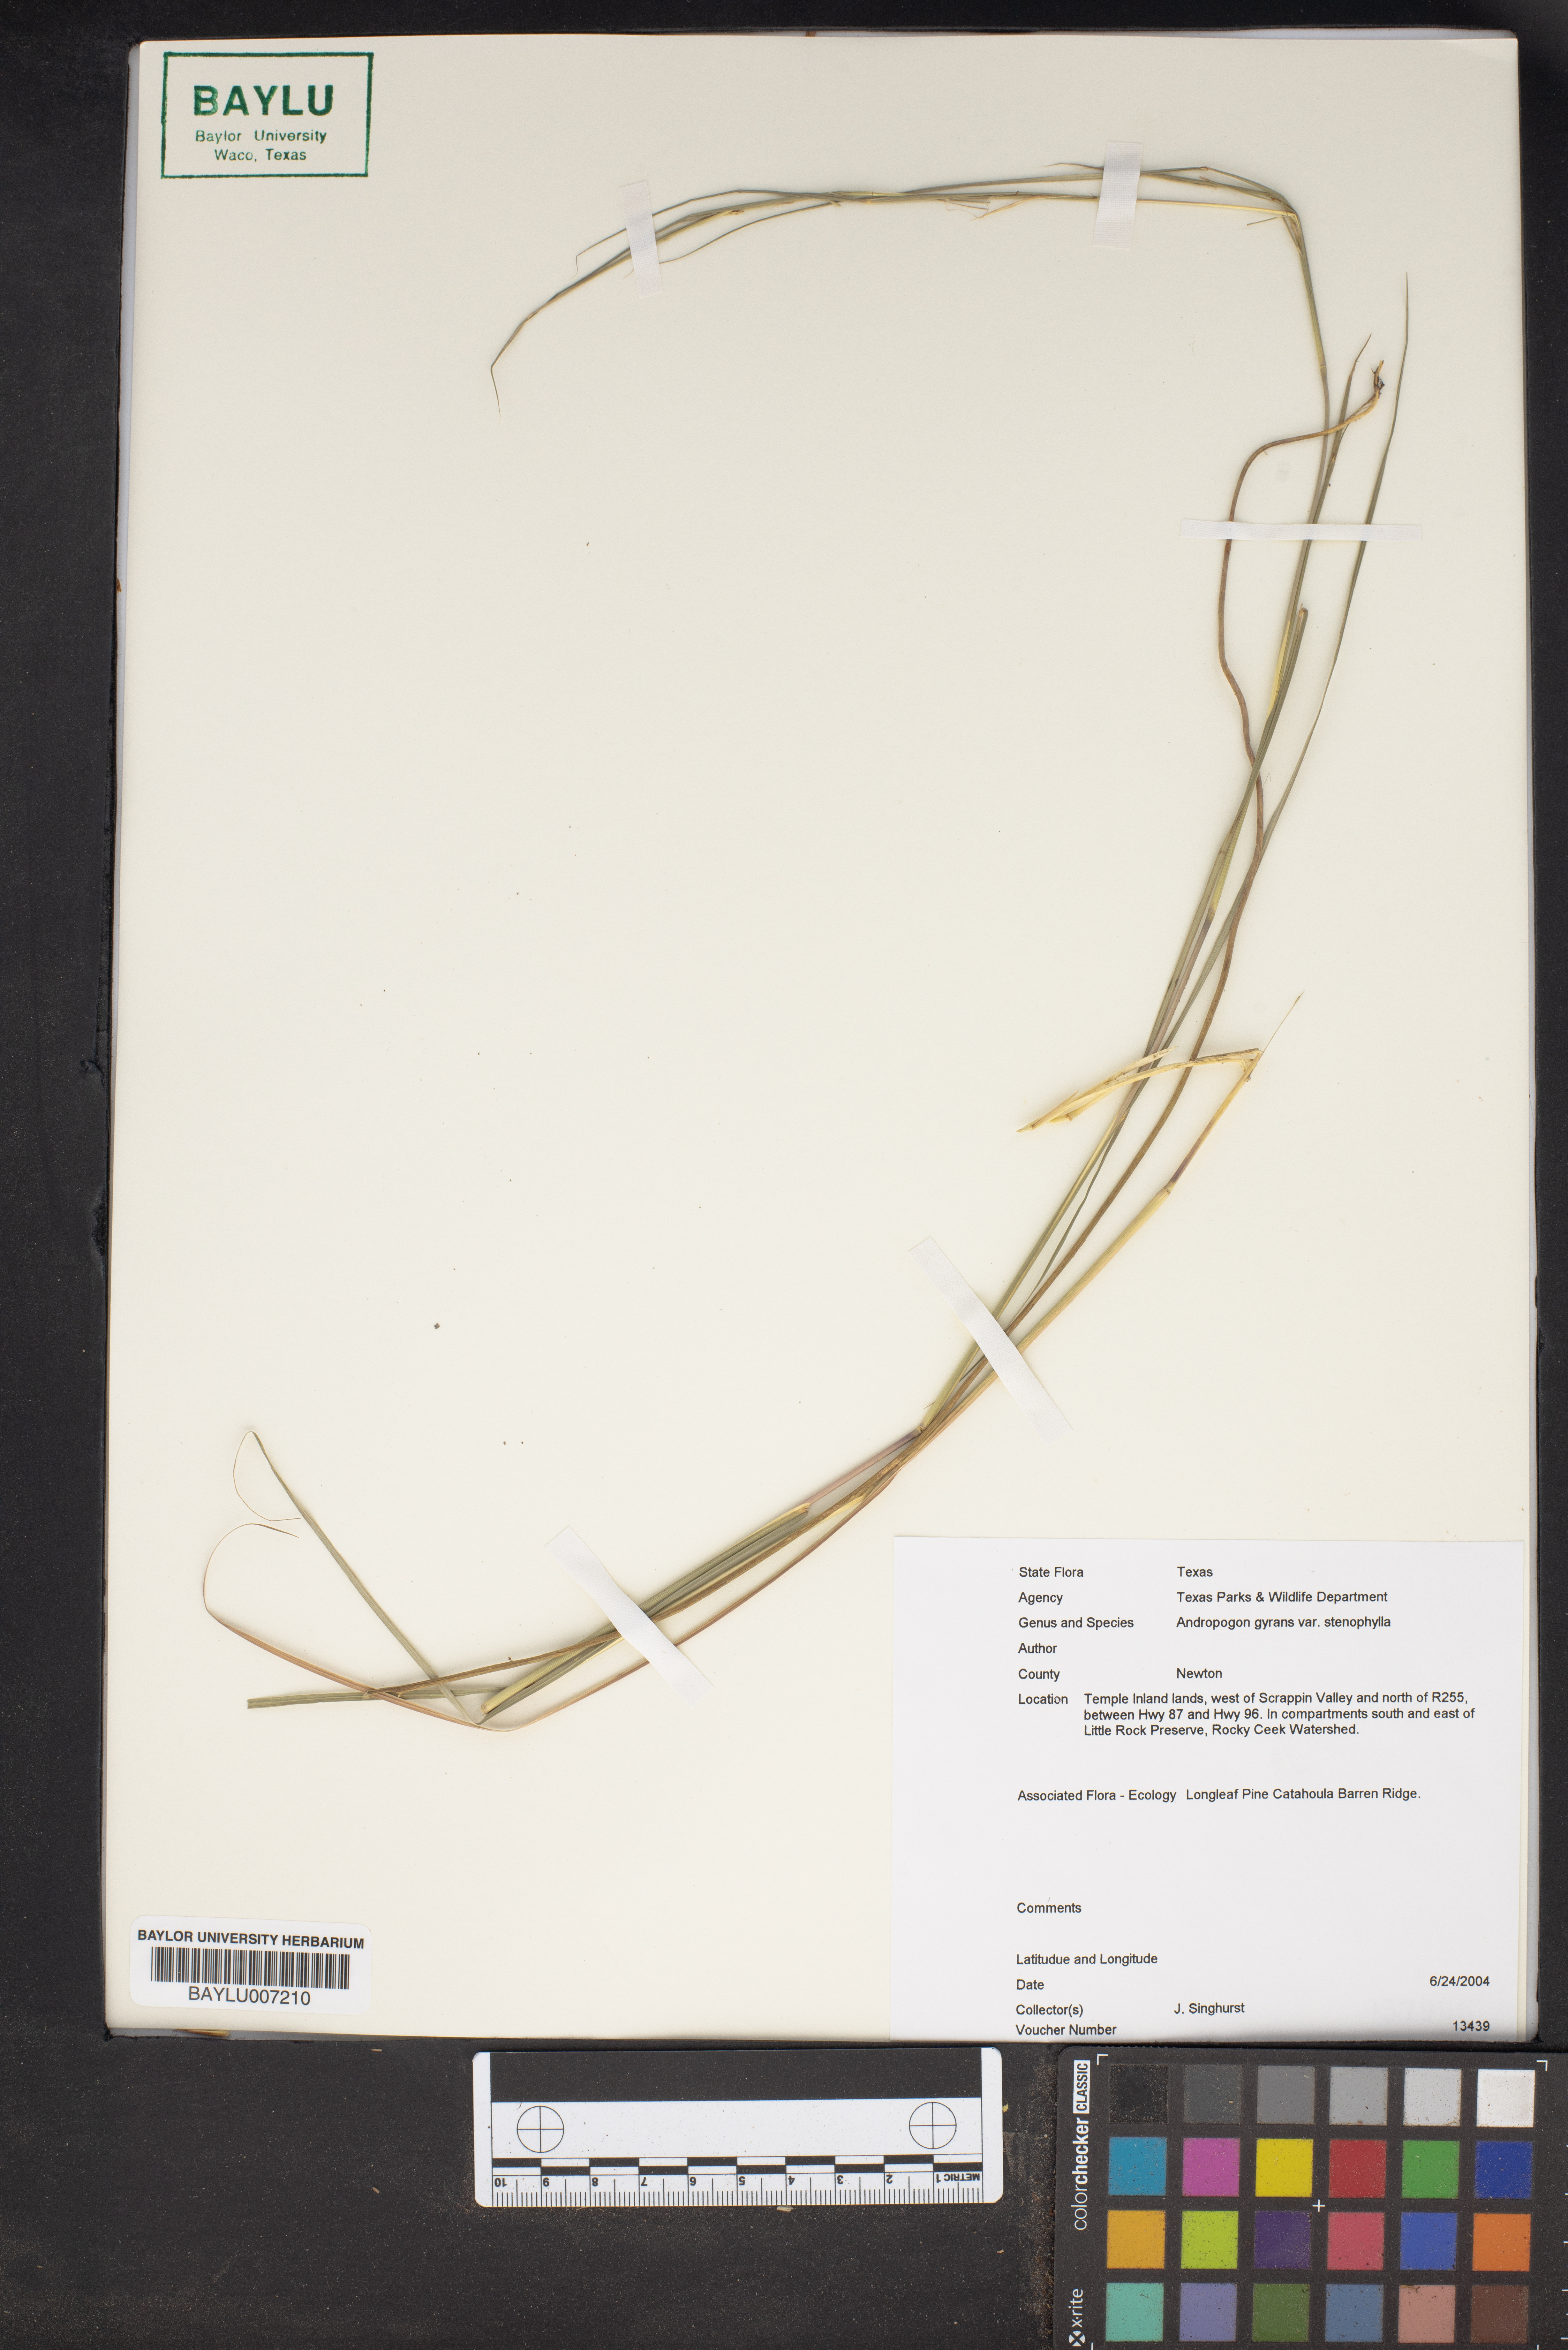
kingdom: Plantae
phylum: Tracheophyta
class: Liliopsida
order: Poales
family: Poaceae
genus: Andropogon
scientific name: Andropogon perangustatus
